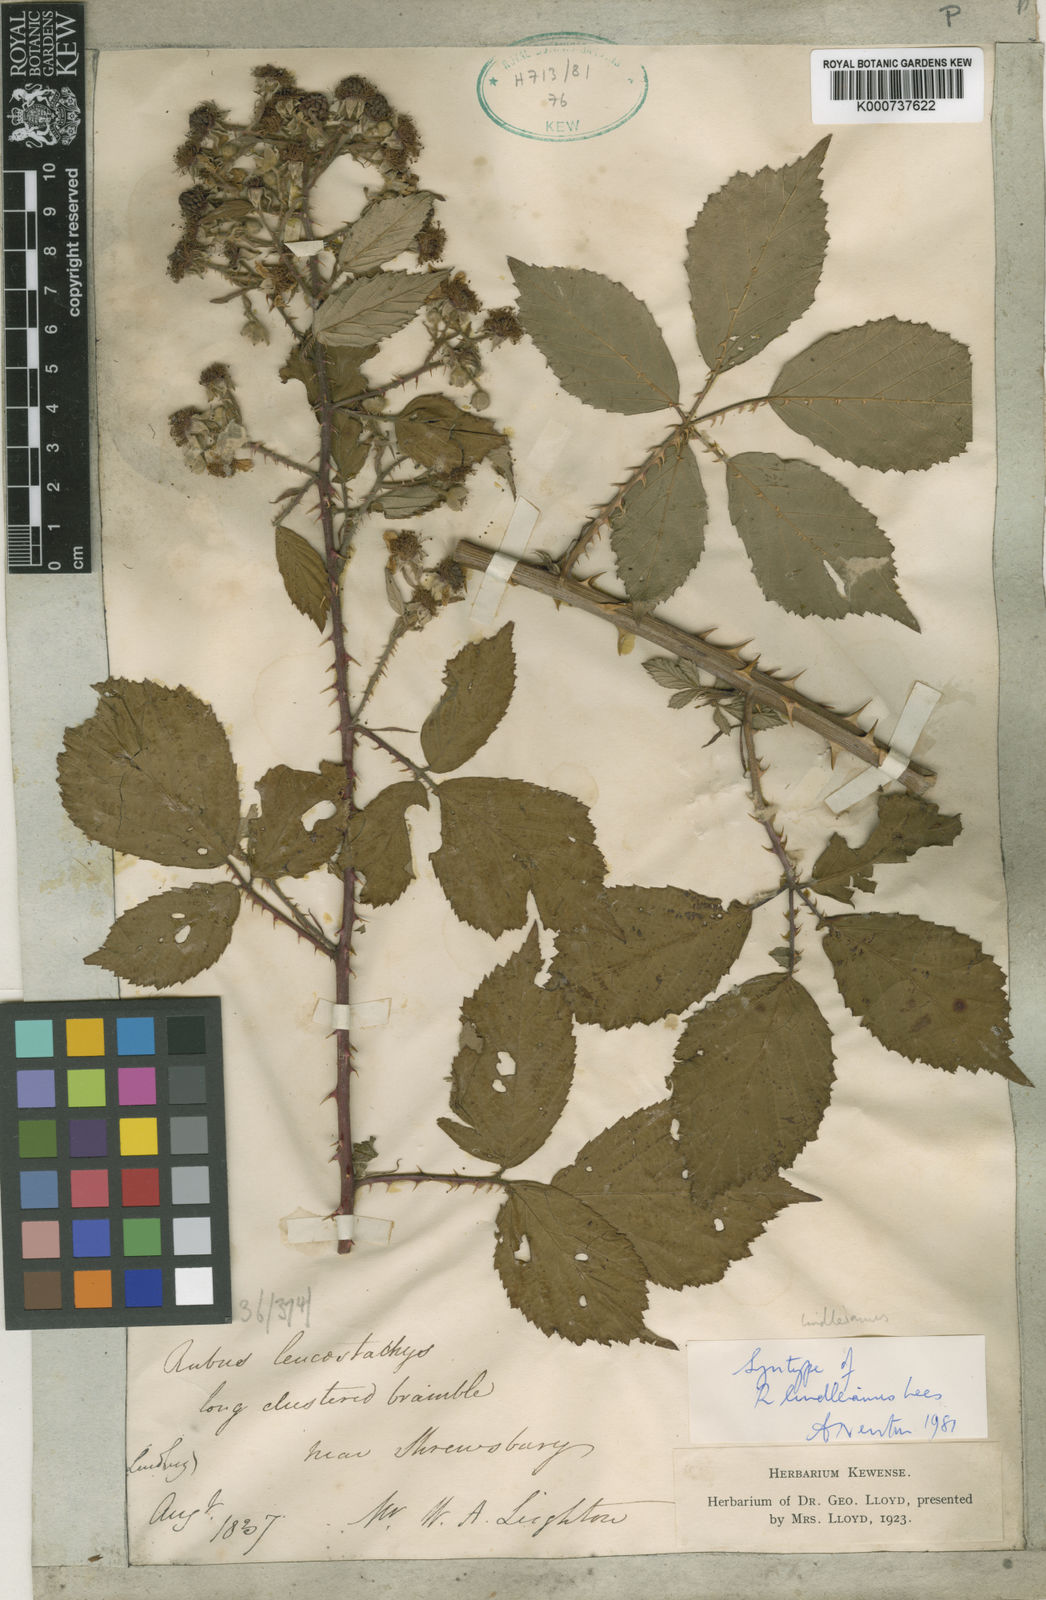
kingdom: Plantae
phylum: Tracheophyta
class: Magnoliopsida
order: Rosales
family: Rosaceae
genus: Rubus
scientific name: Rubus lindleyanus
